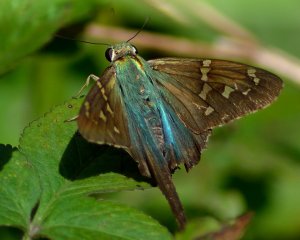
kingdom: Animalia
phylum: Arthropoda
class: Insecta
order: Lepidoptera
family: Hesperiidae
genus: Urbanus
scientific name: Urbanus proteus
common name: Long-tailed Skipper
